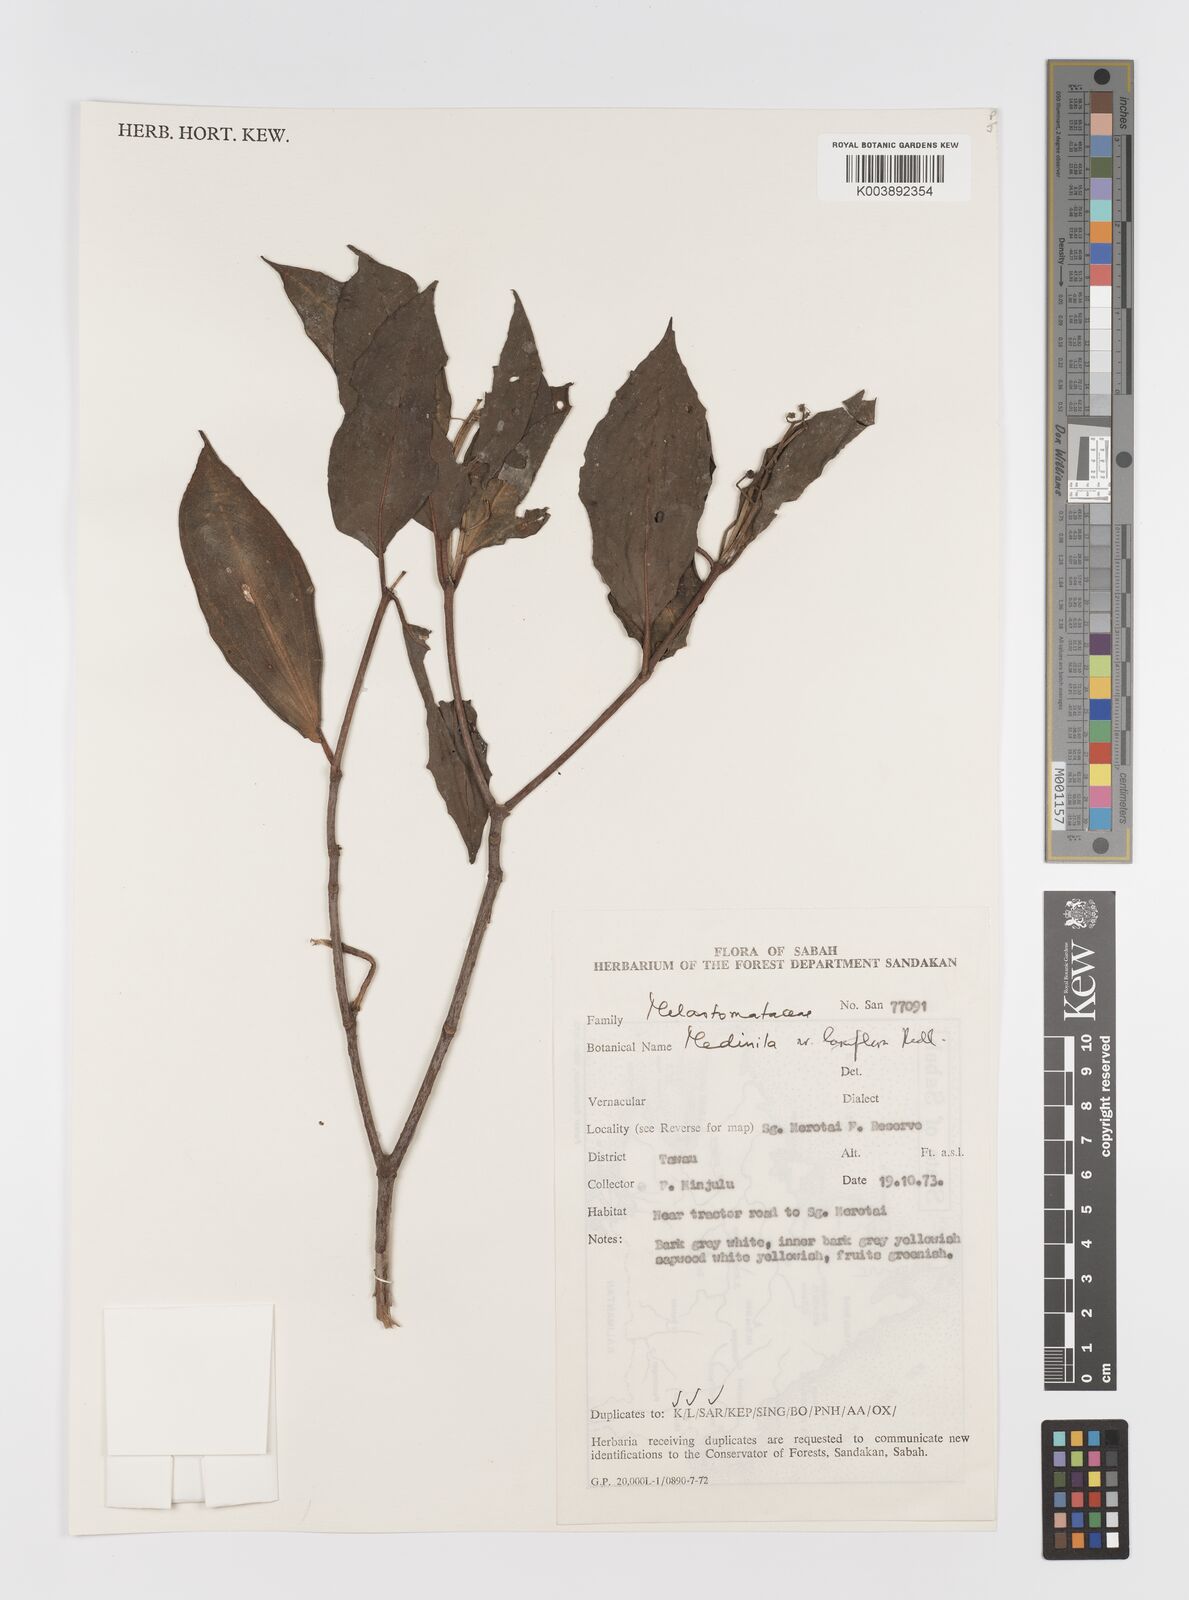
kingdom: Plantae
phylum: Tracheophyta
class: Magnoliopsida
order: Myrtales
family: Melastomataceae
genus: Medinilla
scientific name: Medinilla
